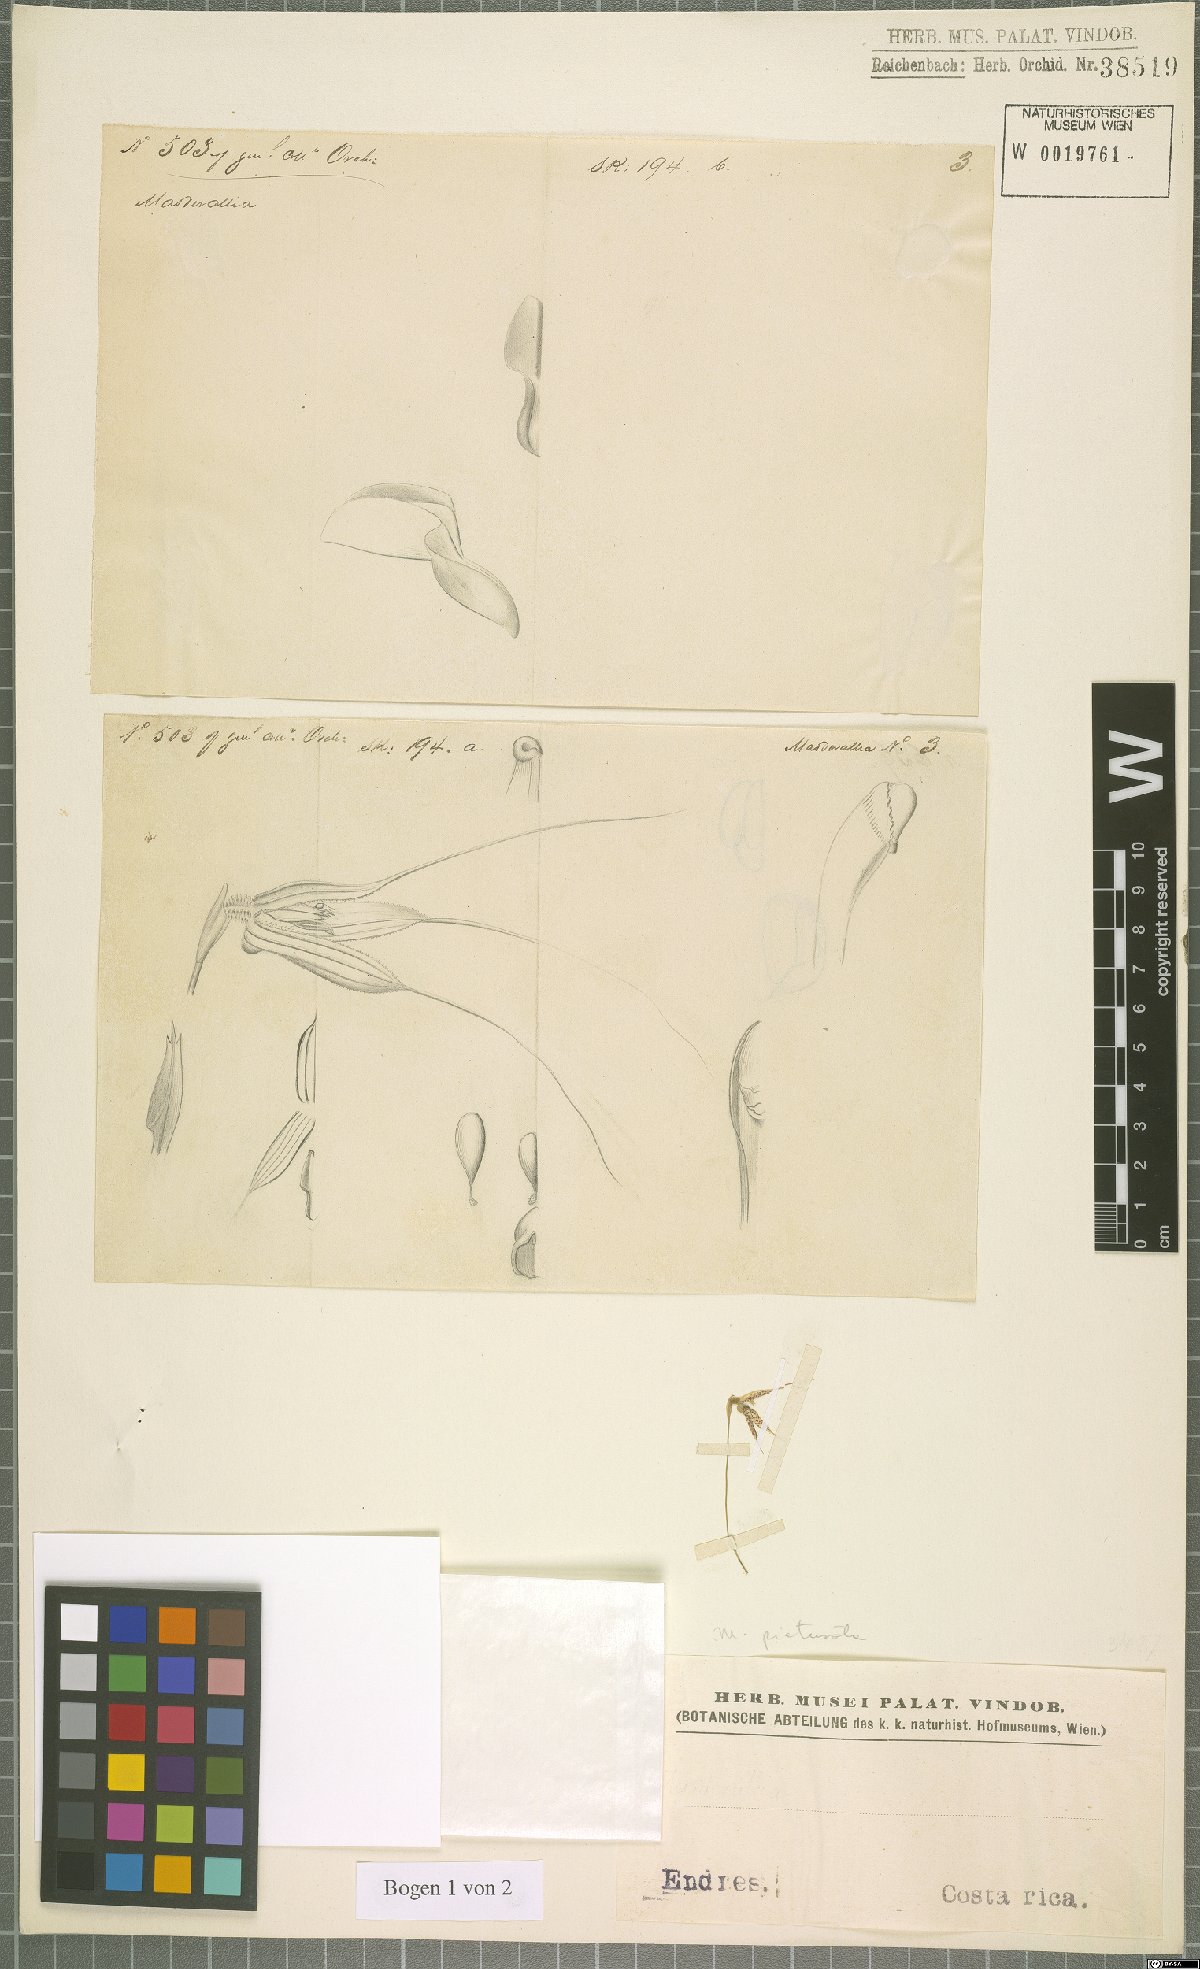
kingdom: Plantae
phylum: Tracheophyta
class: Liliopsida
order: Asparagales
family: Orchidaceae
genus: Masdevallia
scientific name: Masdevallia picturata
